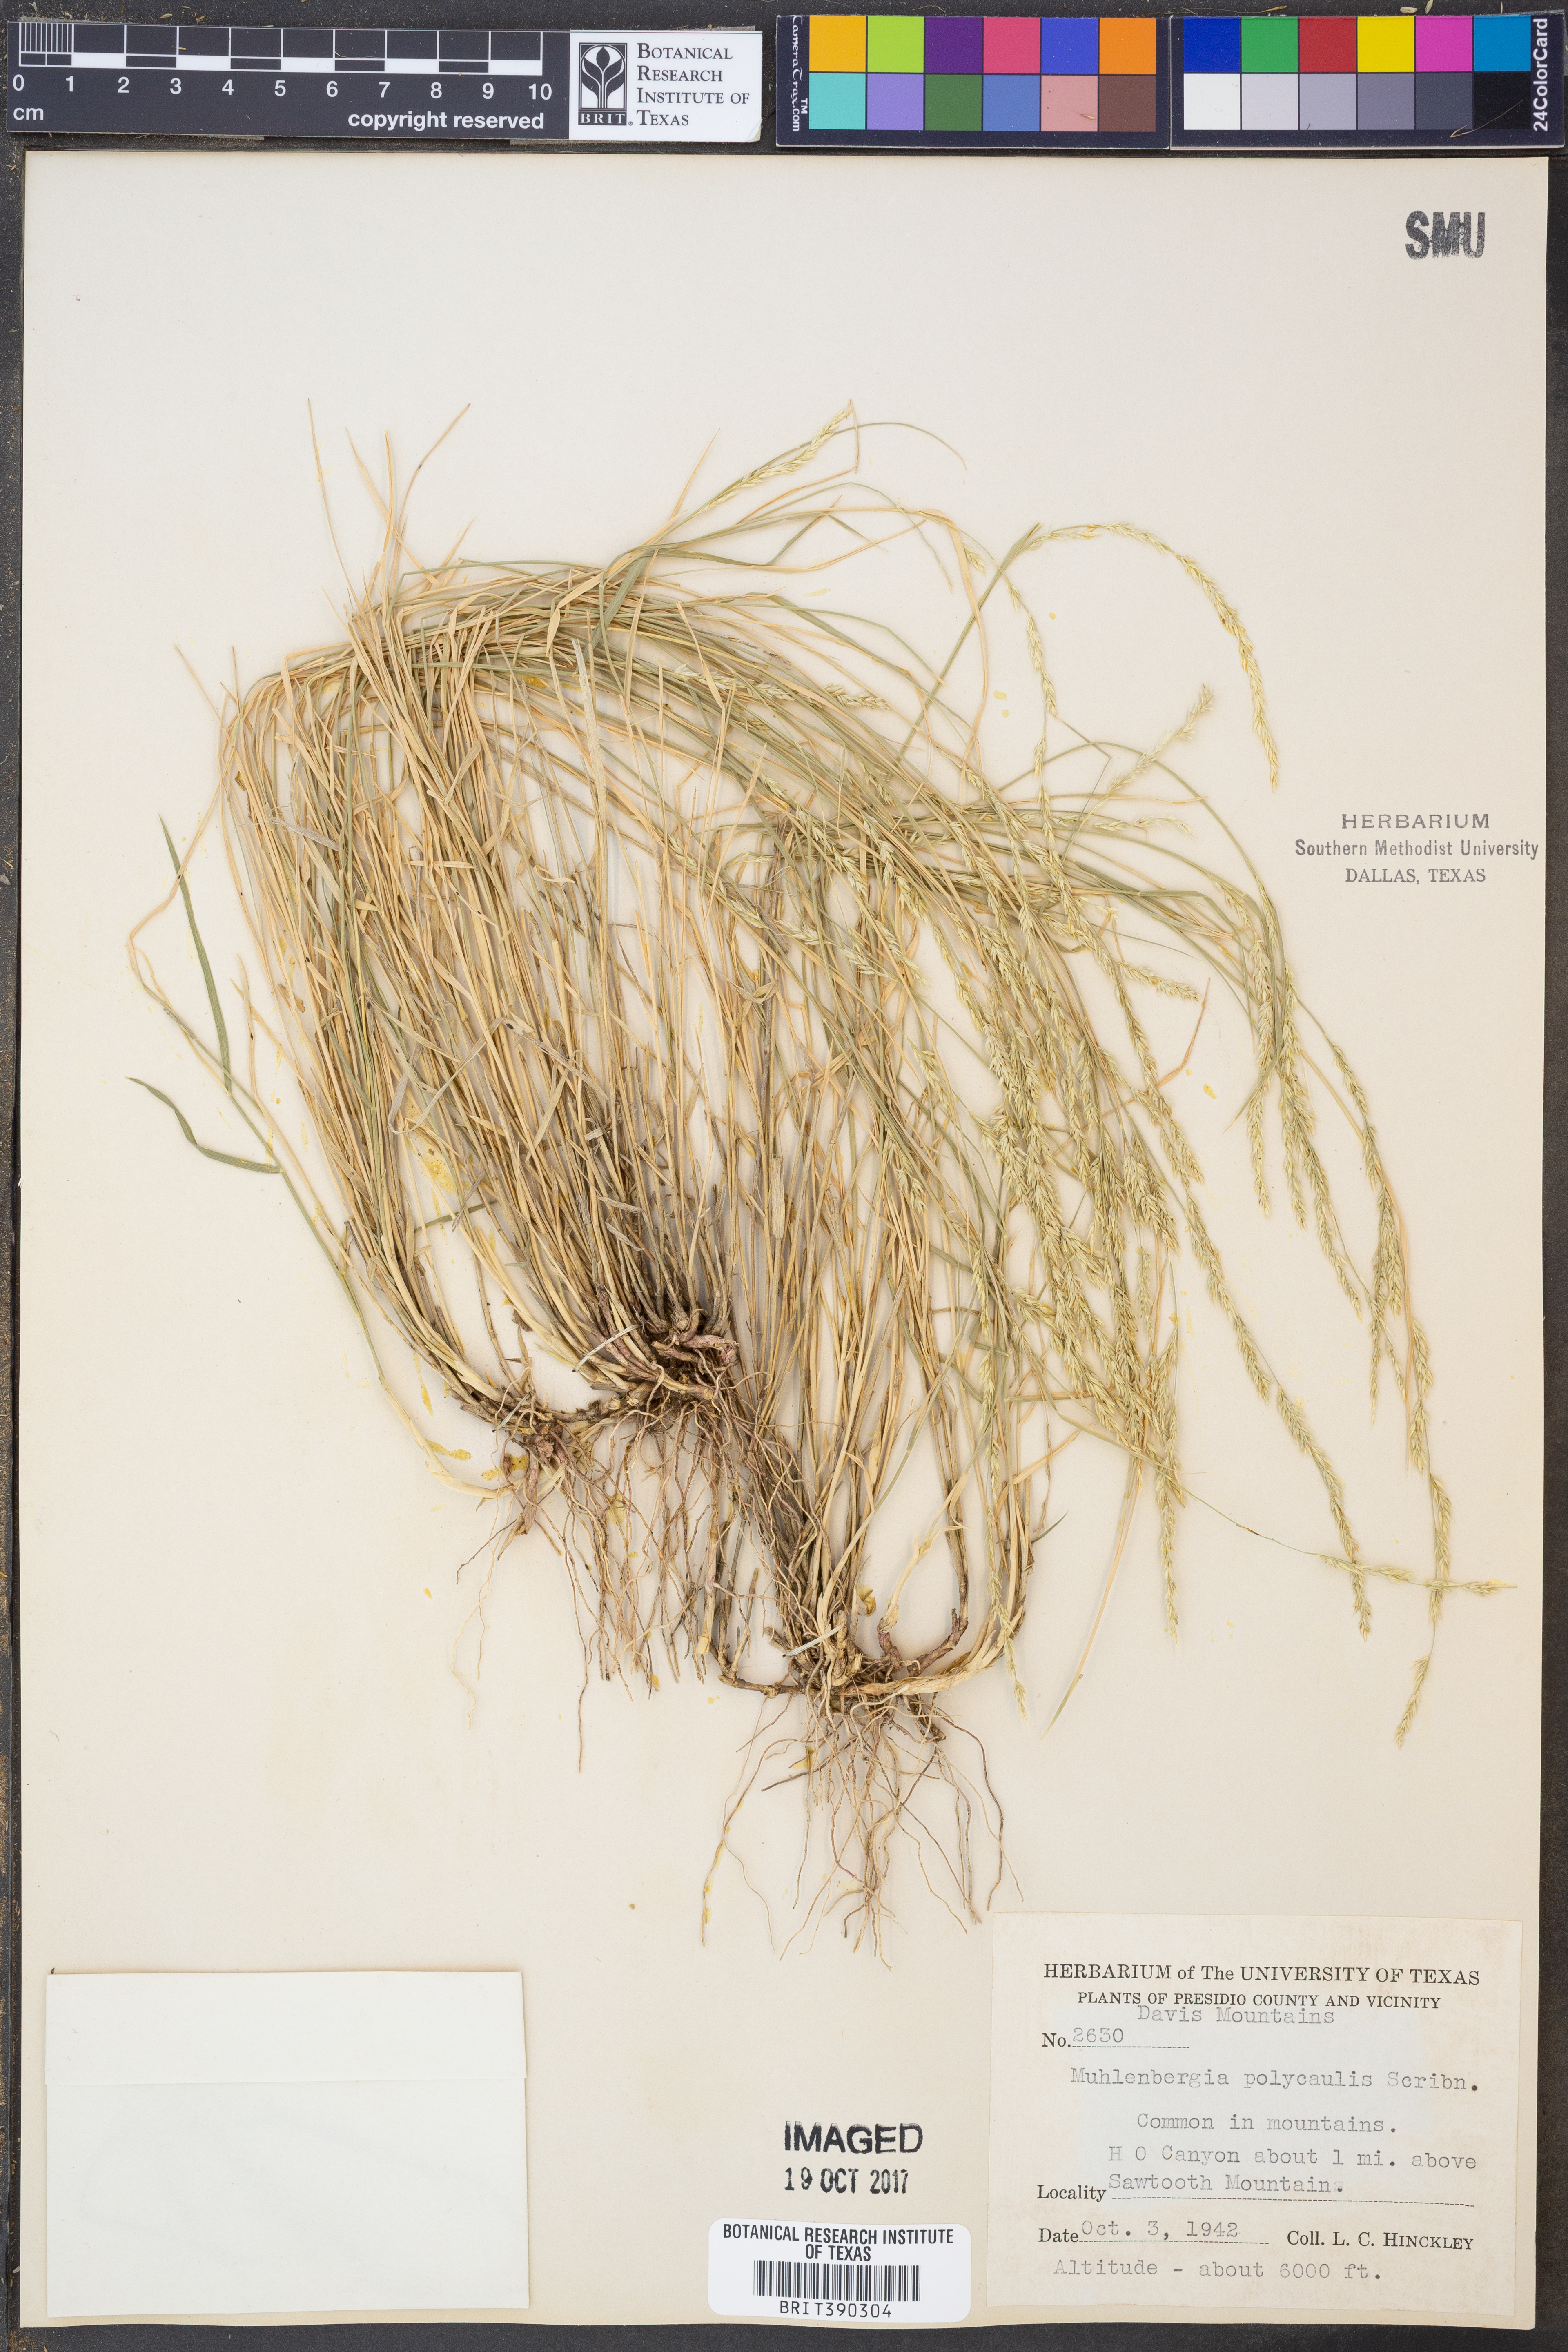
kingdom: Plantae
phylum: Tracheophyta
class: Liliopsida
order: Poales
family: Poaceae
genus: Muhlenbergia
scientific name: Muhlenbergia polycaulis
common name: Cliff muhly
